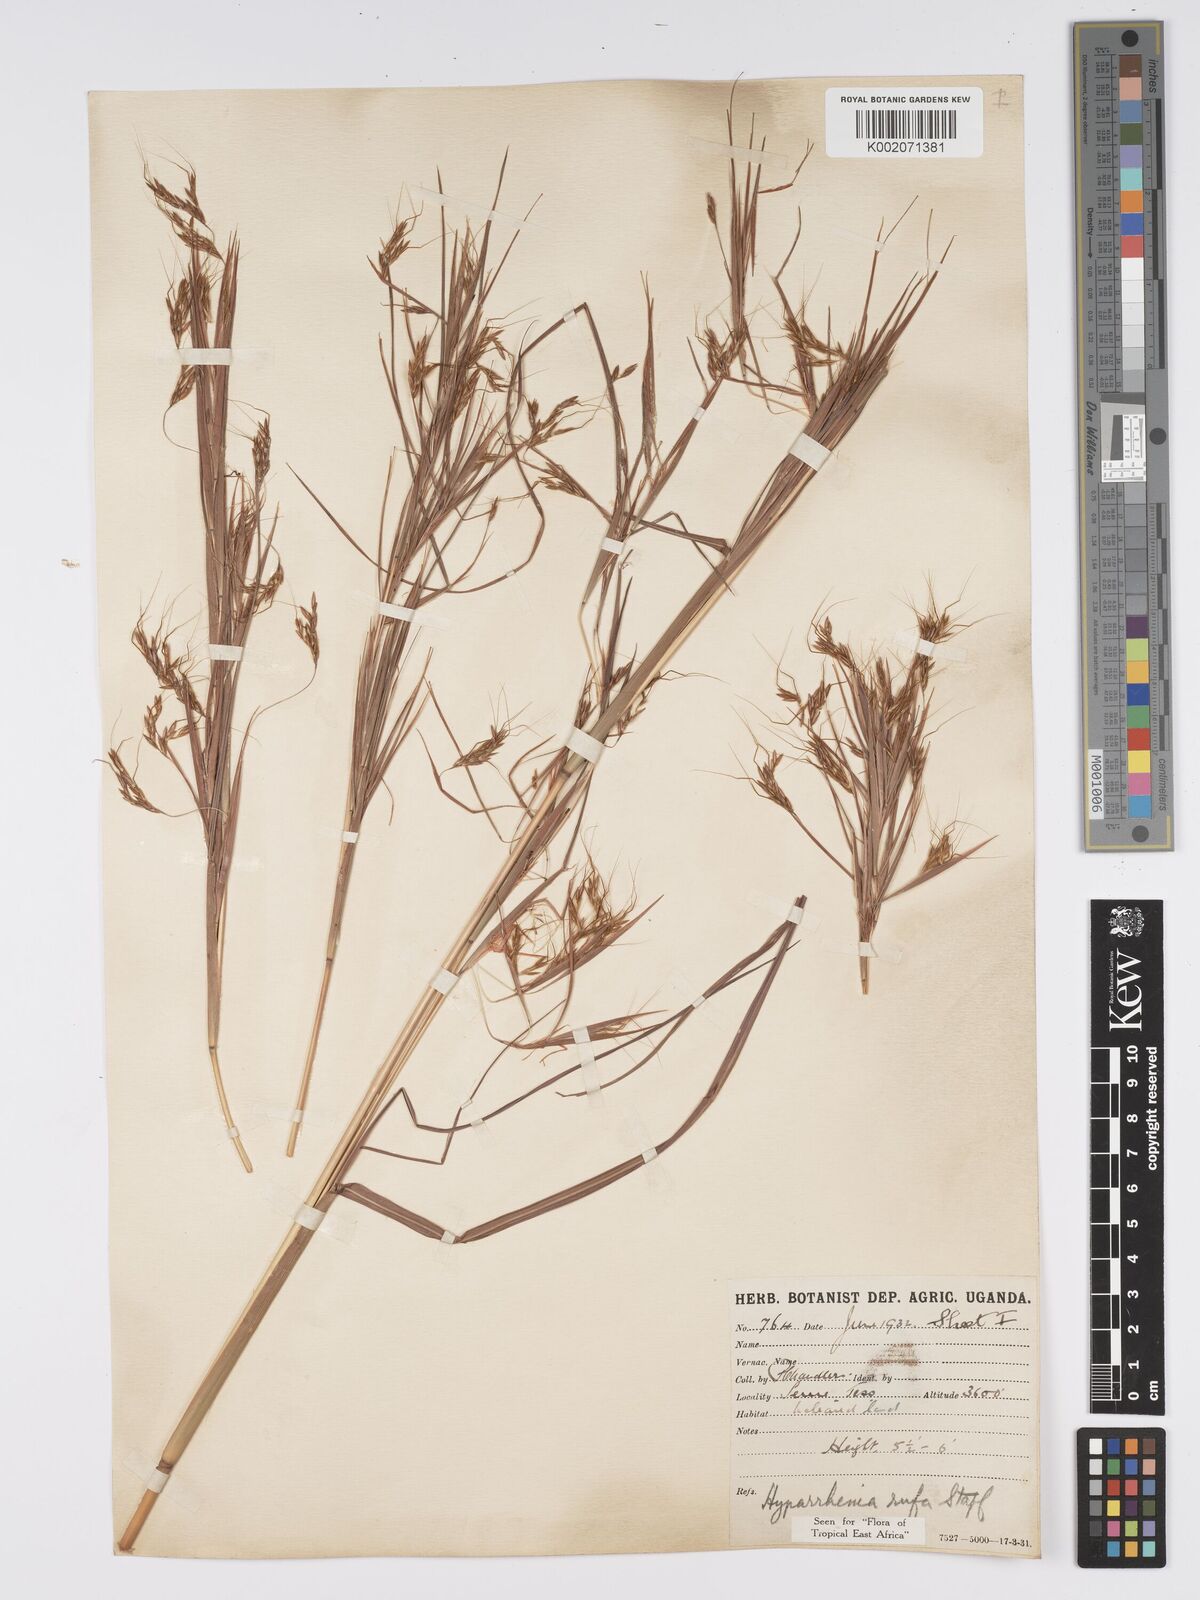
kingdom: Plantae
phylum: Tracheophyta
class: Liliopsida
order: Poales
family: Poaceae
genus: Hyparrhenia
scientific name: Hyparrhenia rufa
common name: Jaraguagrass
